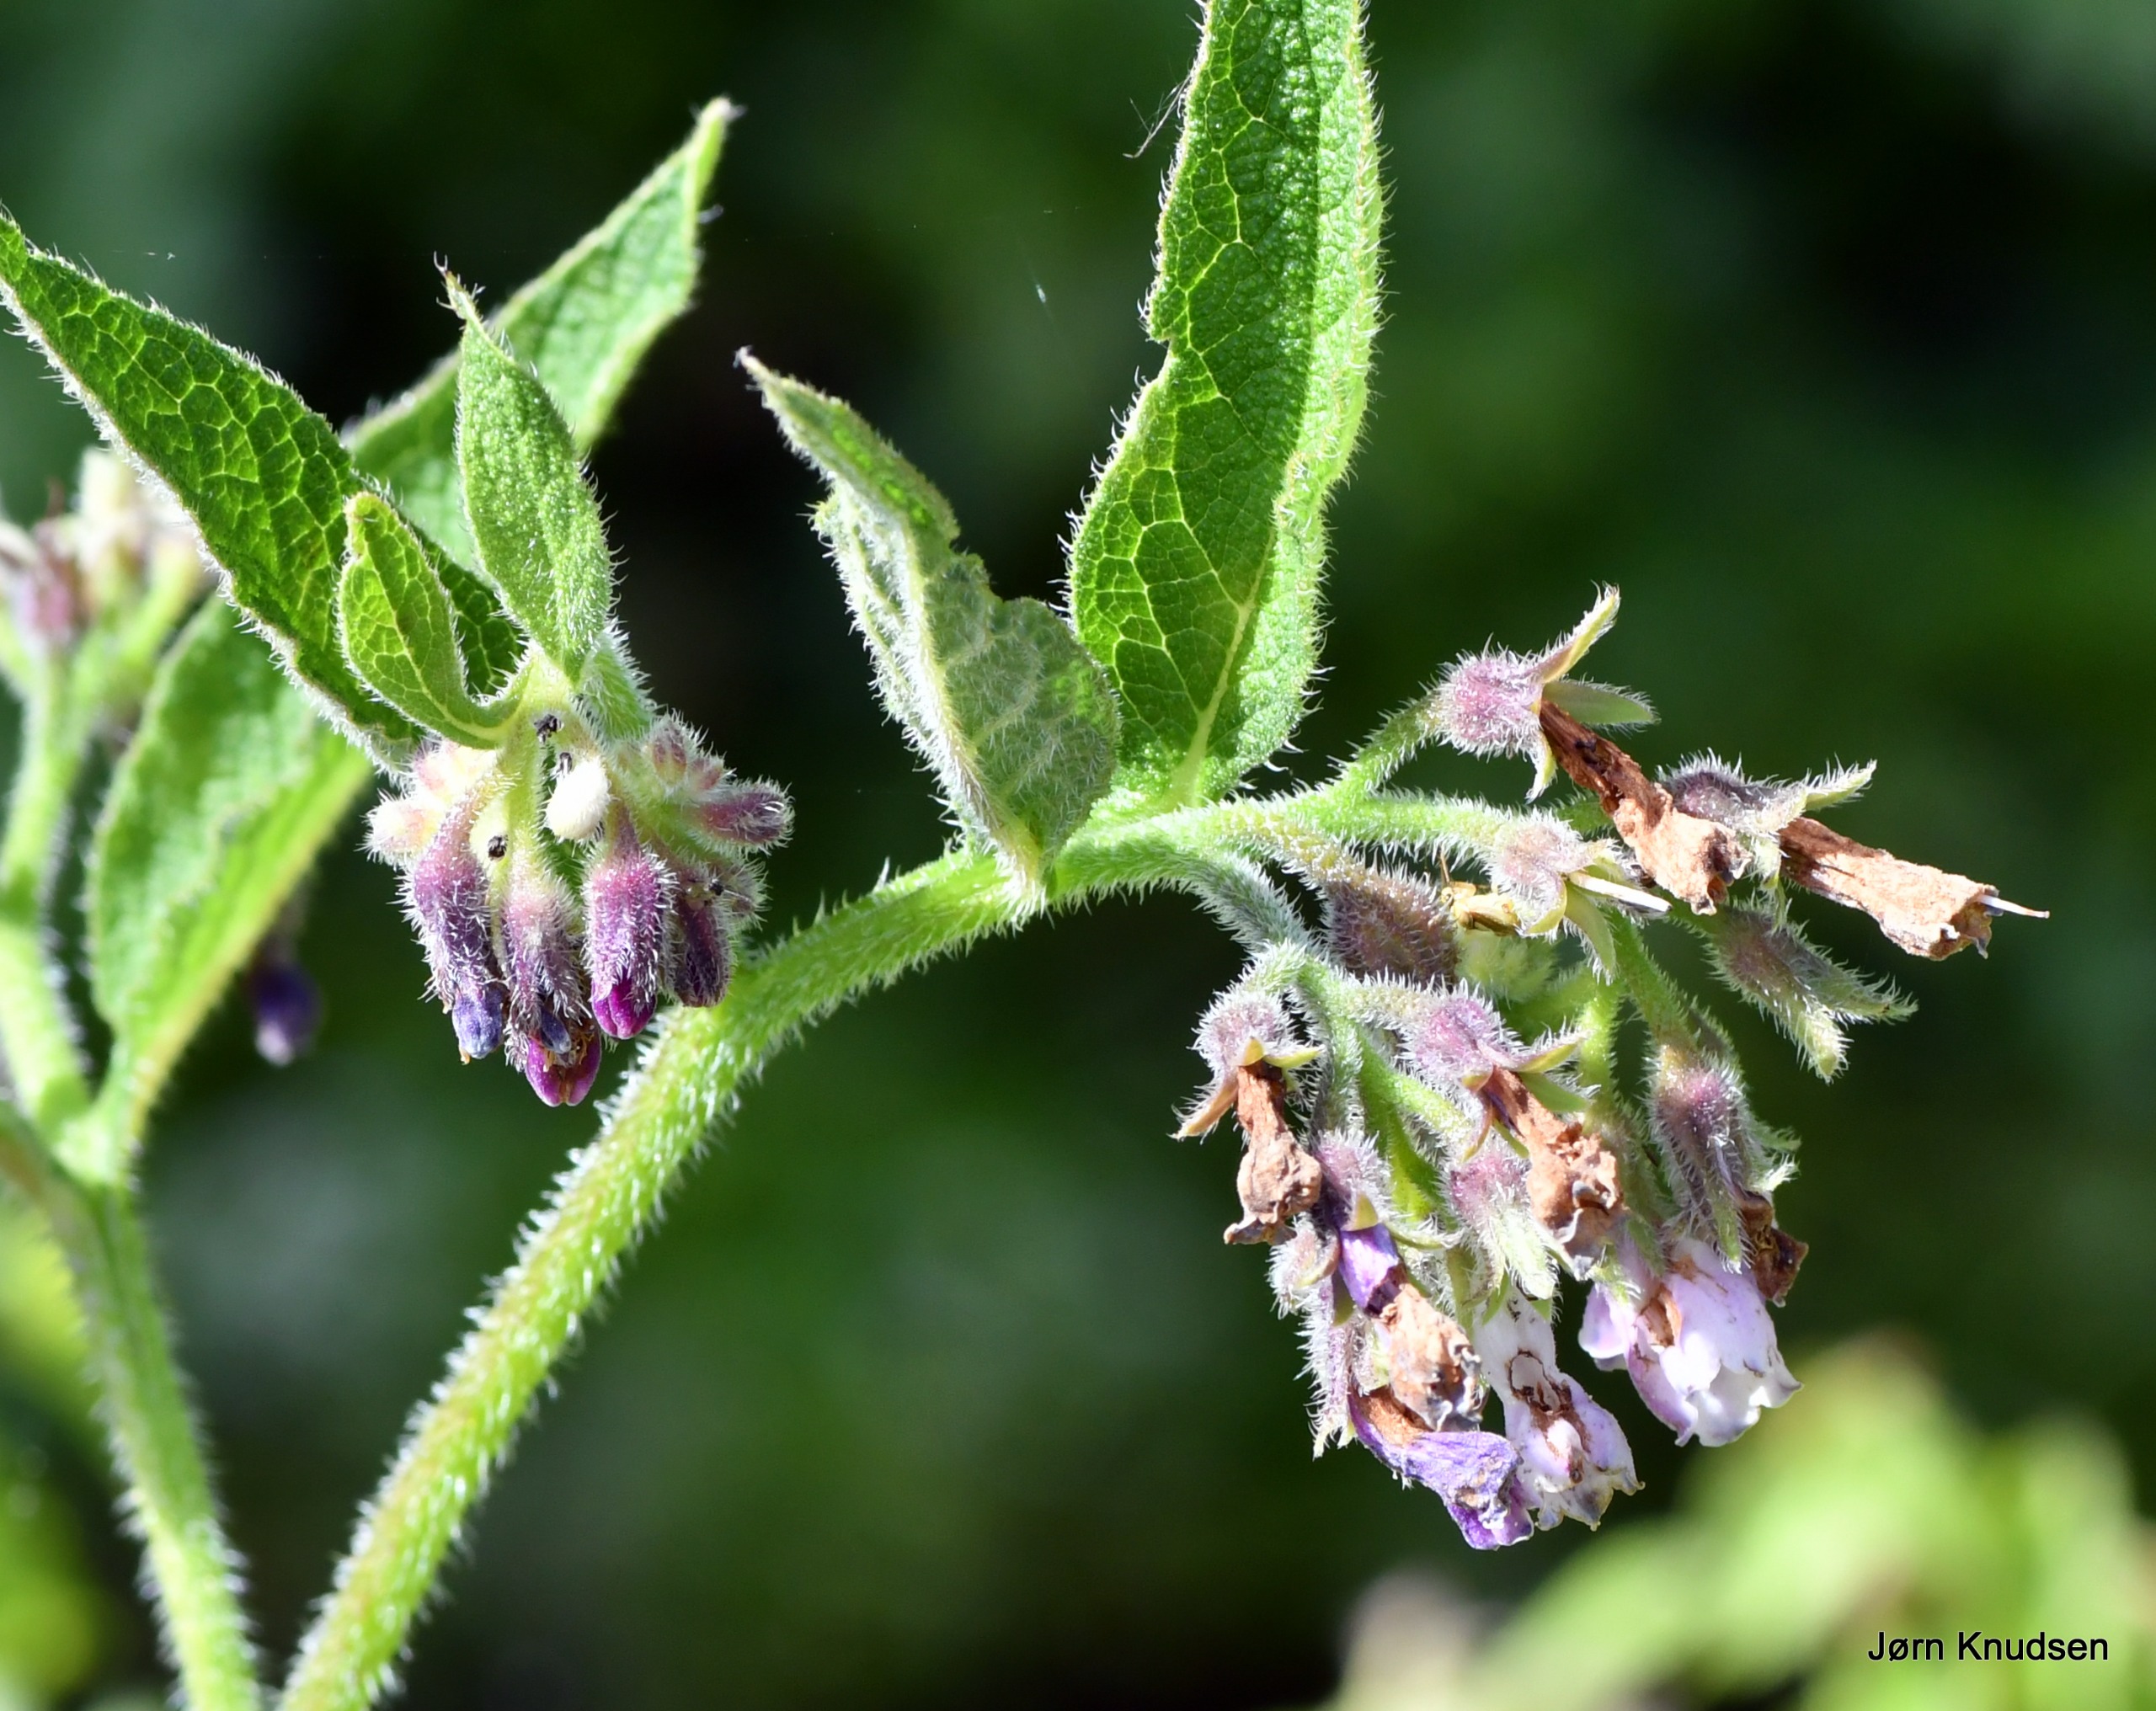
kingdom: Plantae
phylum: Tracheophyta
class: Magnoliopsida
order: Boraginales
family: Boraginaceae
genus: Symphytum
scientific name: Symphytum uplandicum
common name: Foder-kulsukker
